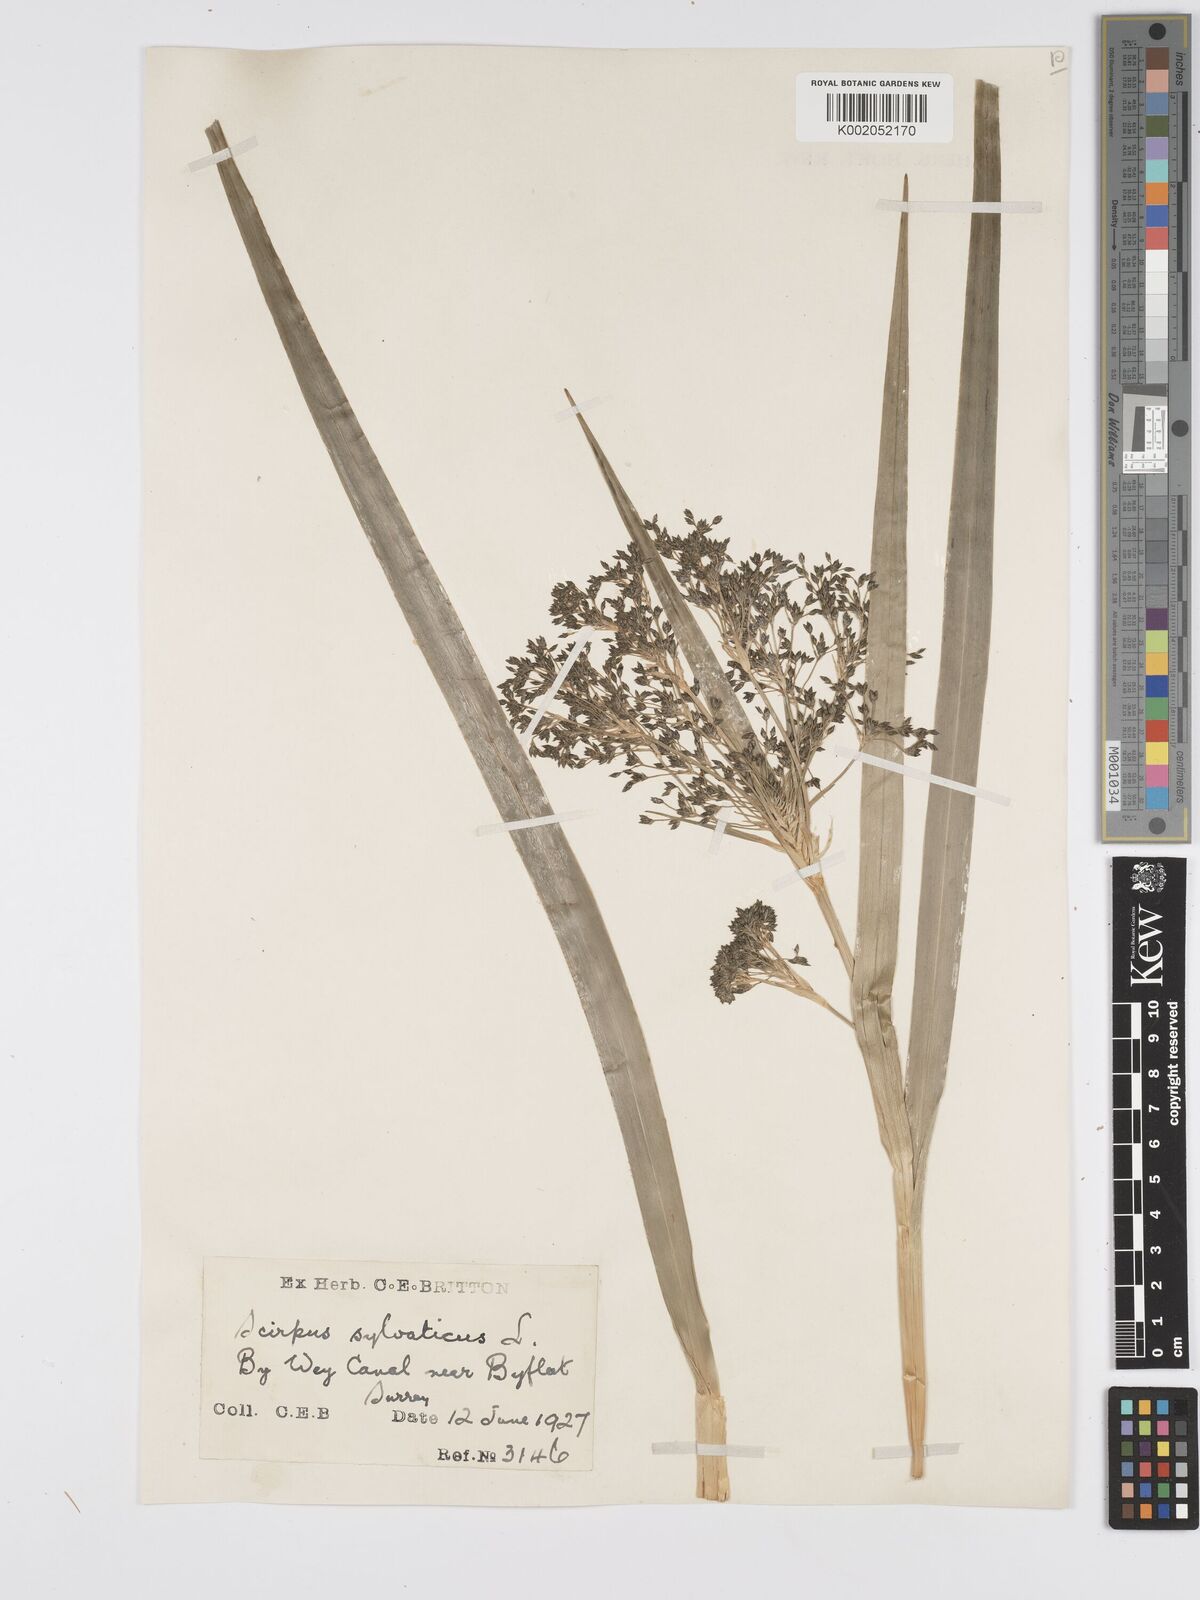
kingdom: Plantae
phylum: Tracheophyta
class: Liliopsida
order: Poales
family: Cyperaceae
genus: Scirpus
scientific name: Scirpus sylvaticus
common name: Wood club-rush
